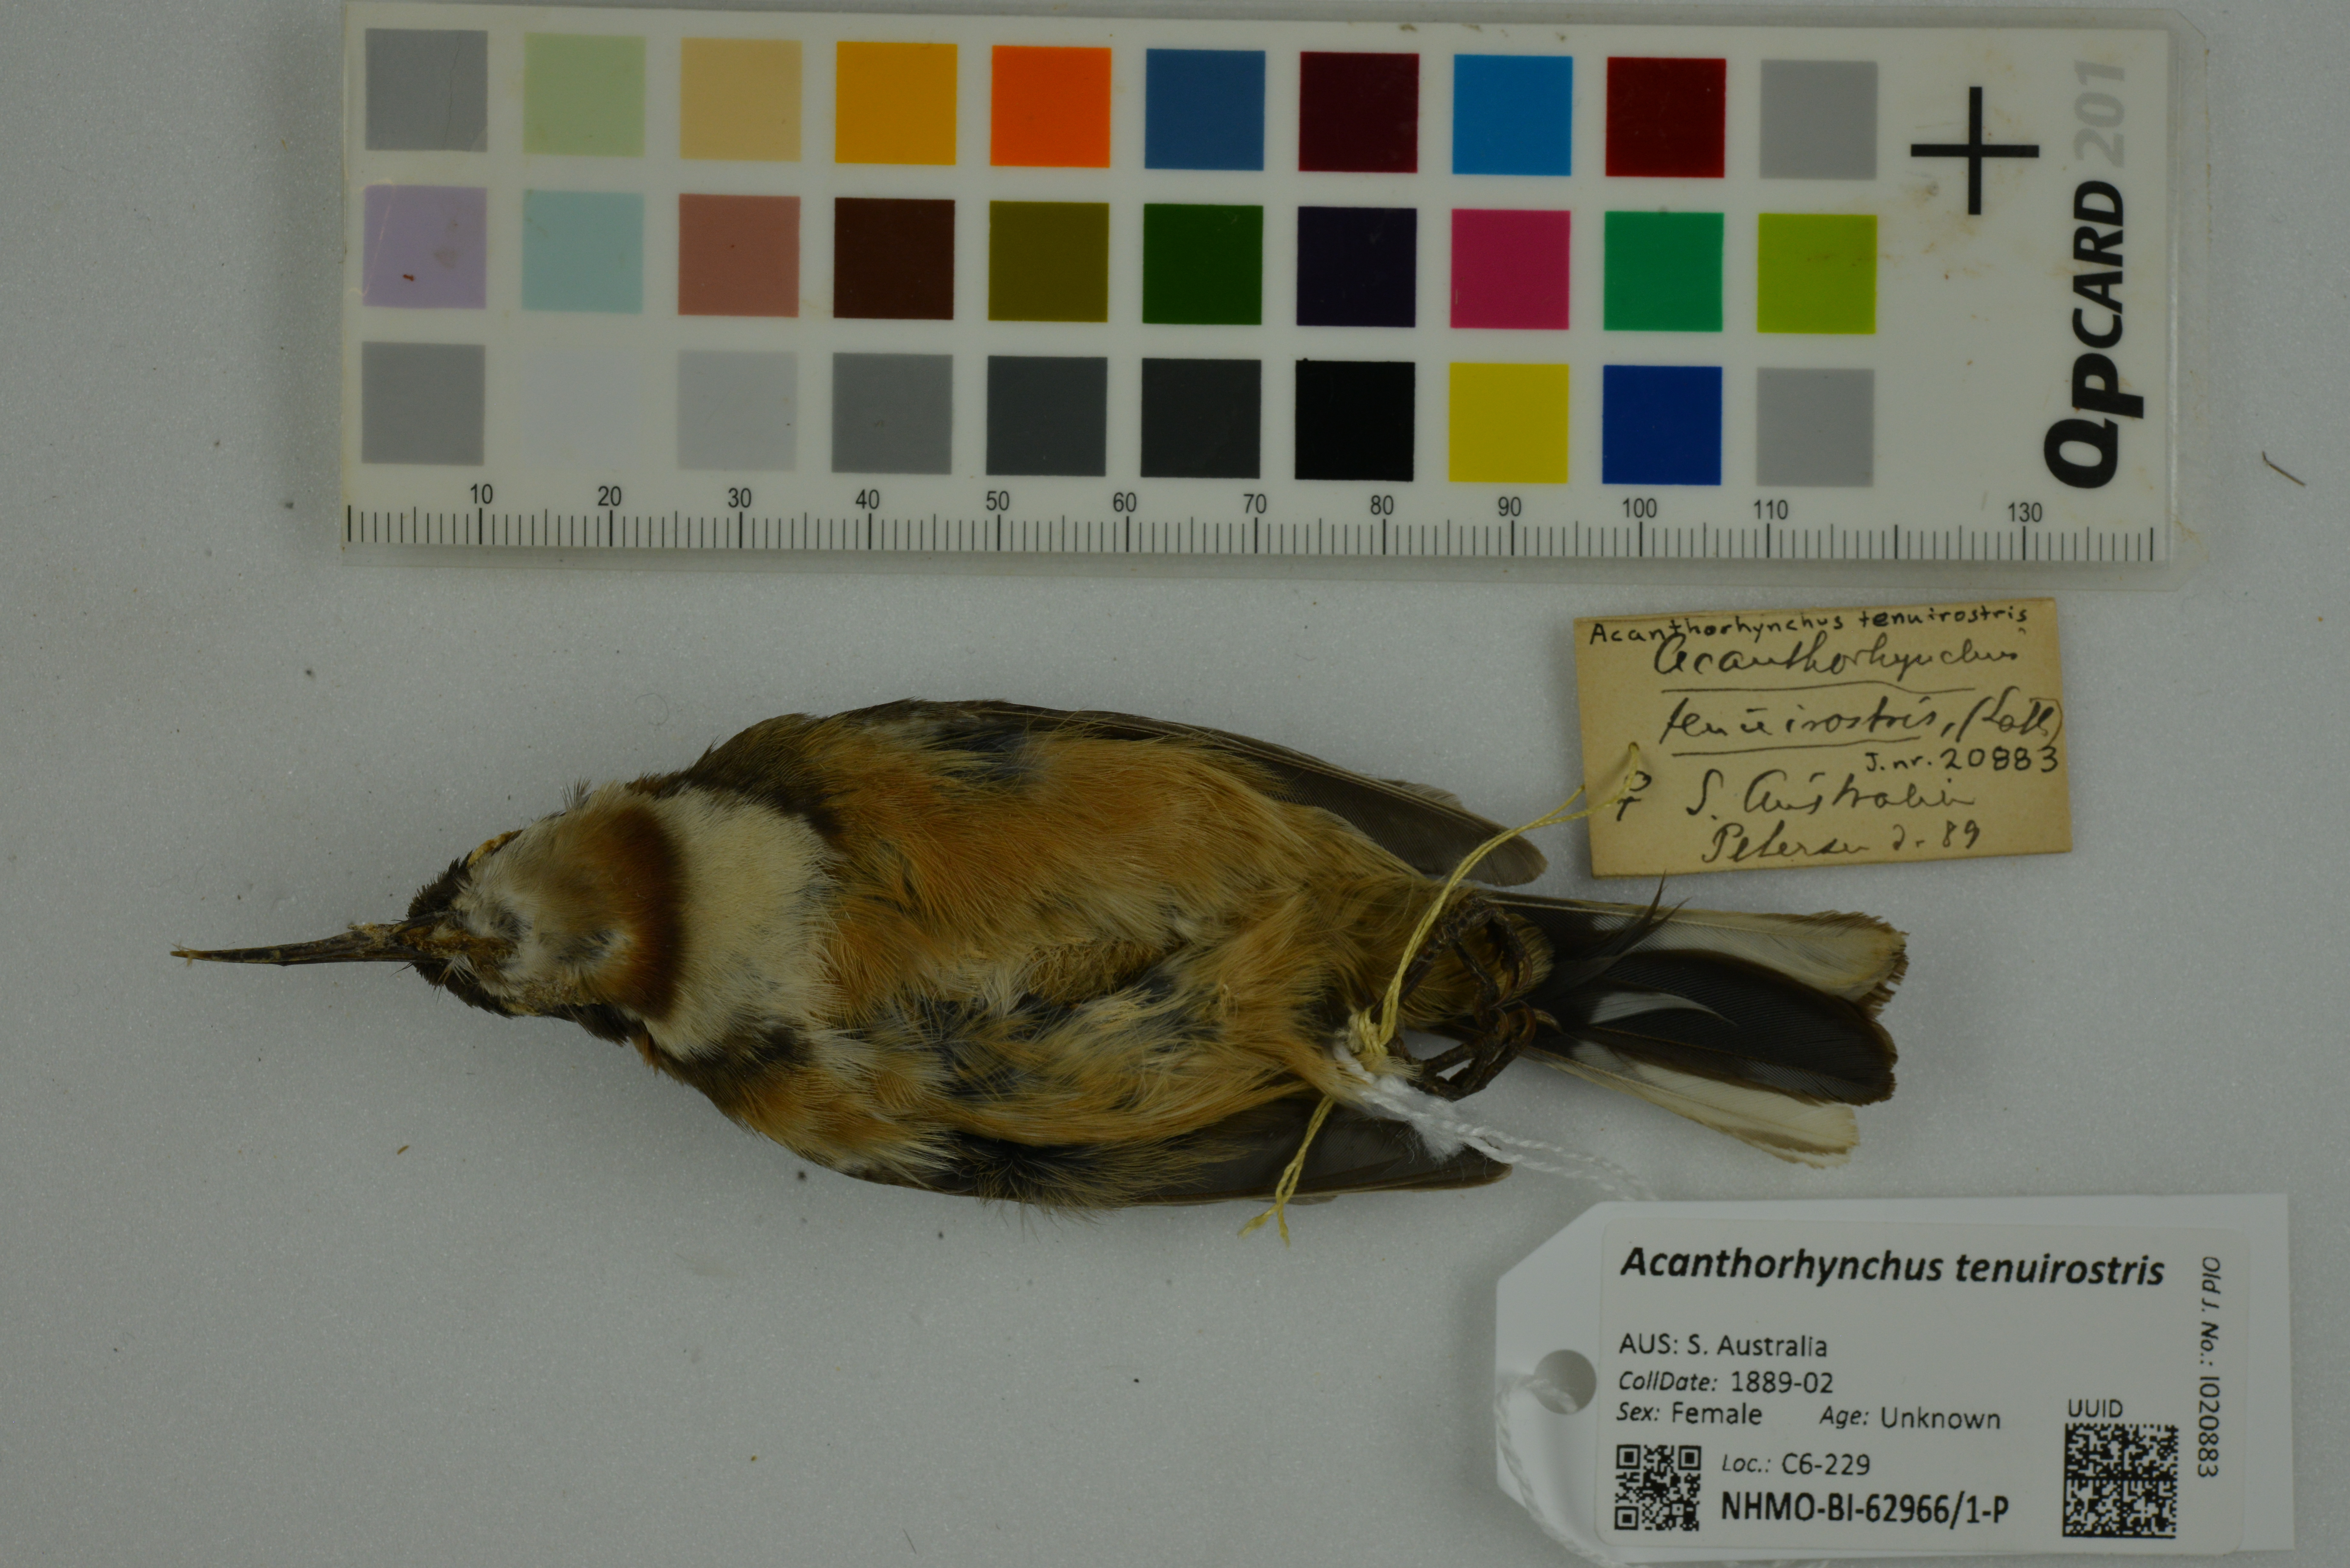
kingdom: Animalia
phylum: Chordata
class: Aves
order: Passeriformes
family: Meliphagidae
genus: Acanthorhynchus
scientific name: Acanthorhynchus tenuirostris
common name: Eastern spinebill
